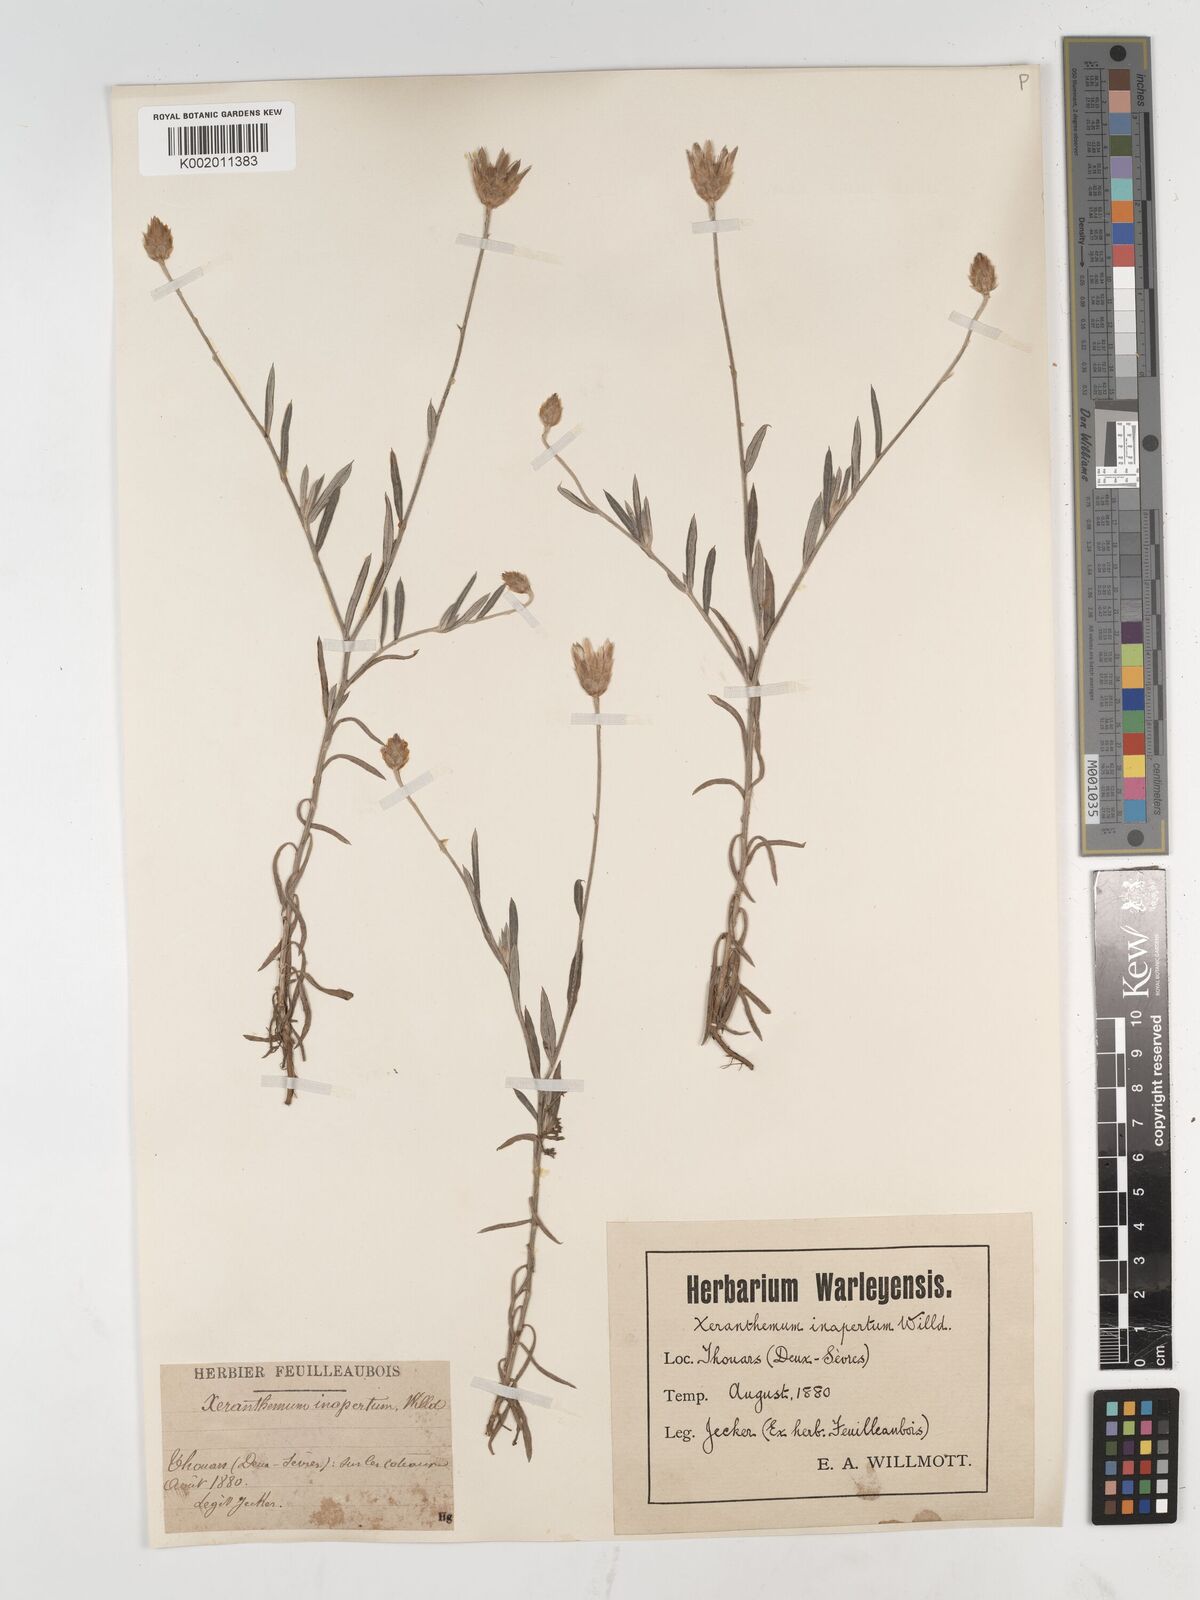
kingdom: Plantae
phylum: Tracheophyta
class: Magnoliopsida
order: Asterales
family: Asteraceae
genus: Xeranthemum
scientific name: Xeranthemum inapertum
